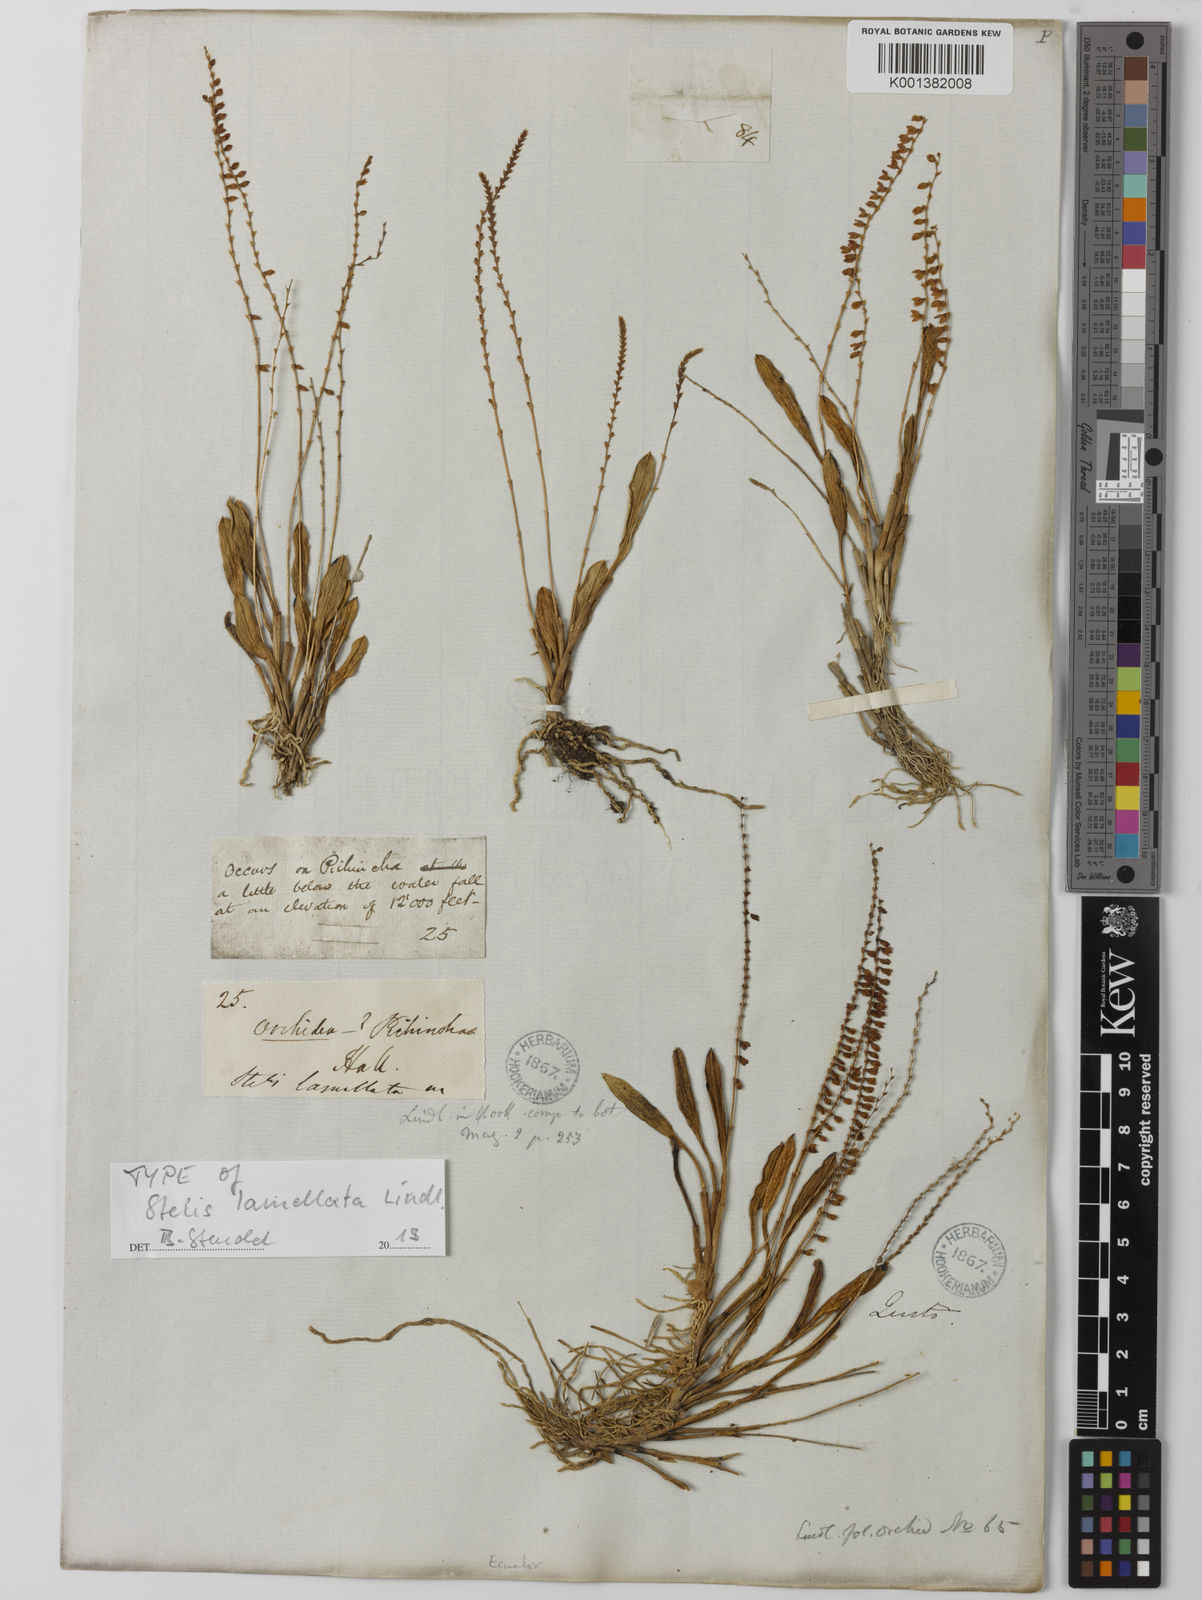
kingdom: Plantae
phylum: Tracheophyta
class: Liliopsida
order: Asparagales
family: Orchidaceae
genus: Stelis
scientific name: Stelis lamellata
